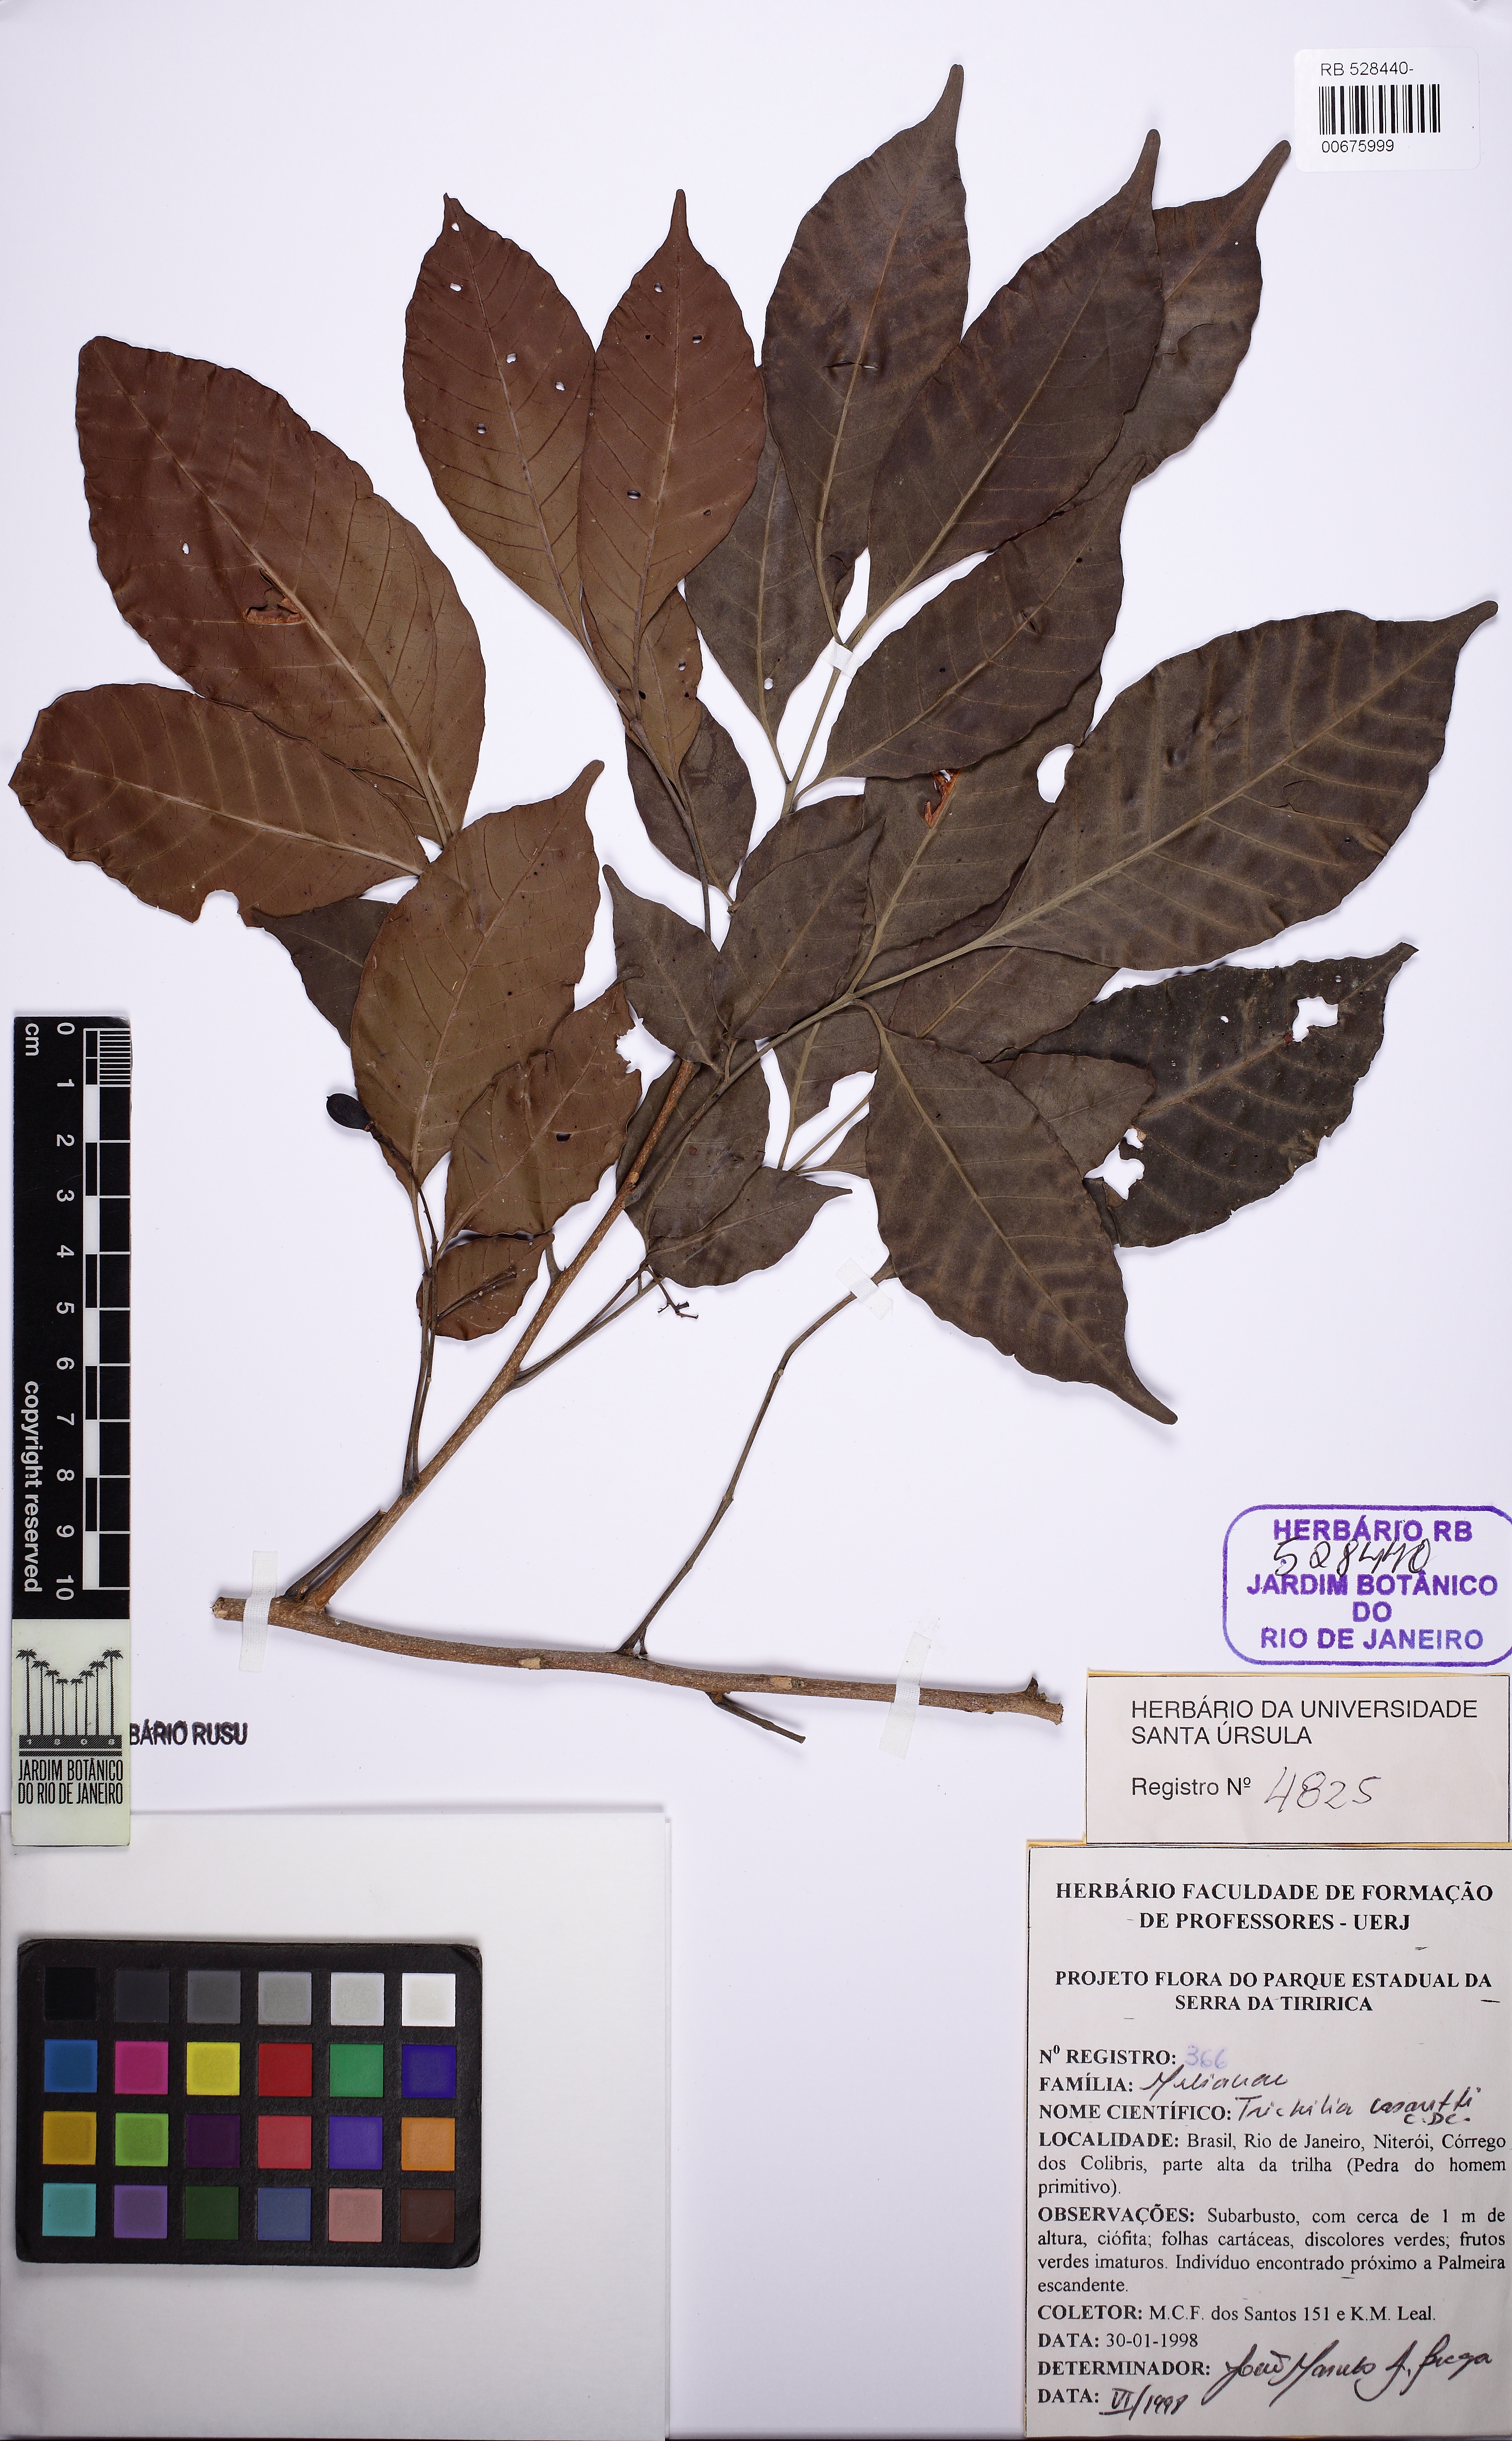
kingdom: Plantae
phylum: Tracheophyta
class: Magnoliopsida
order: Sapindales
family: Meliaceae
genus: Trichilia
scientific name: Trichilia casaretti
